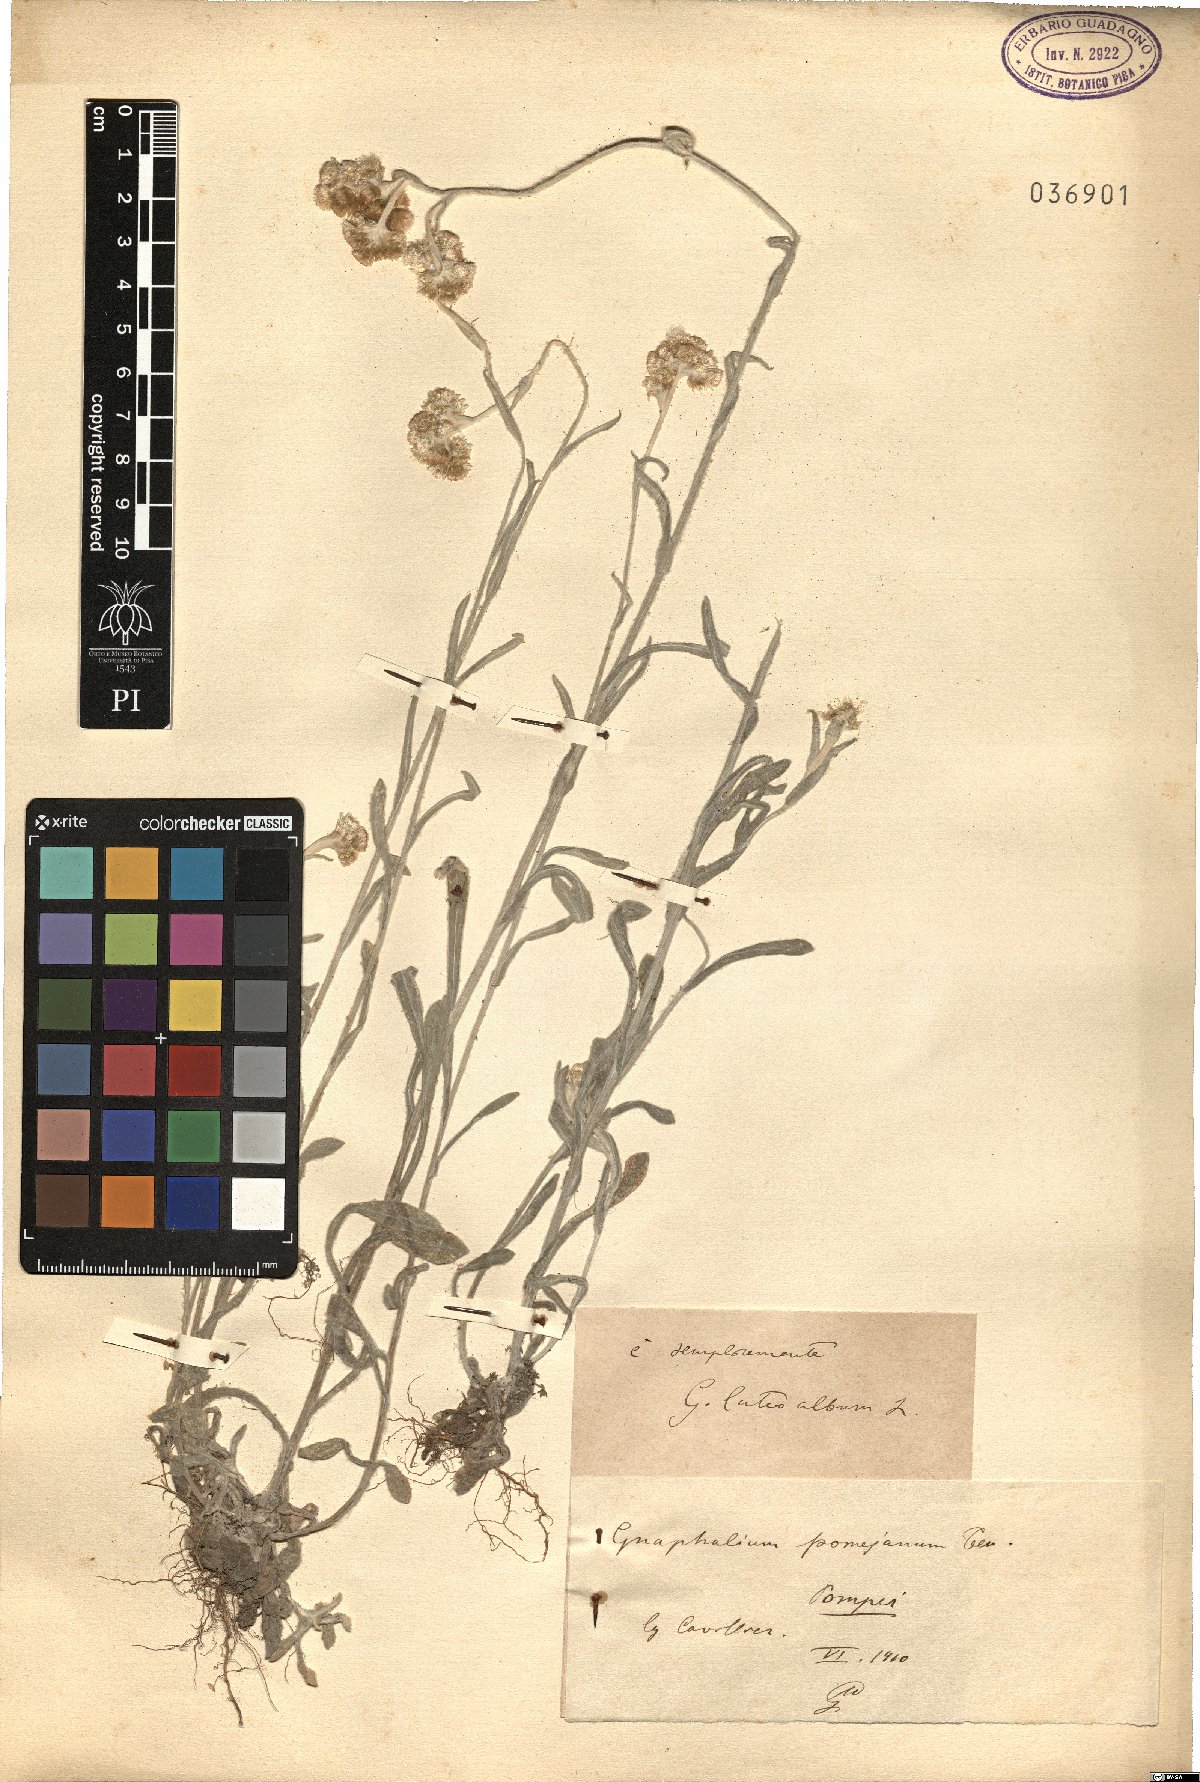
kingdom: Plantae
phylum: Tracheophyta
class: Magnoliopsida
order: Asterales
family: Asteraceae
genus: Helichrysum
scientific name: Helichrysum luteoalbum
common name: Daisy
